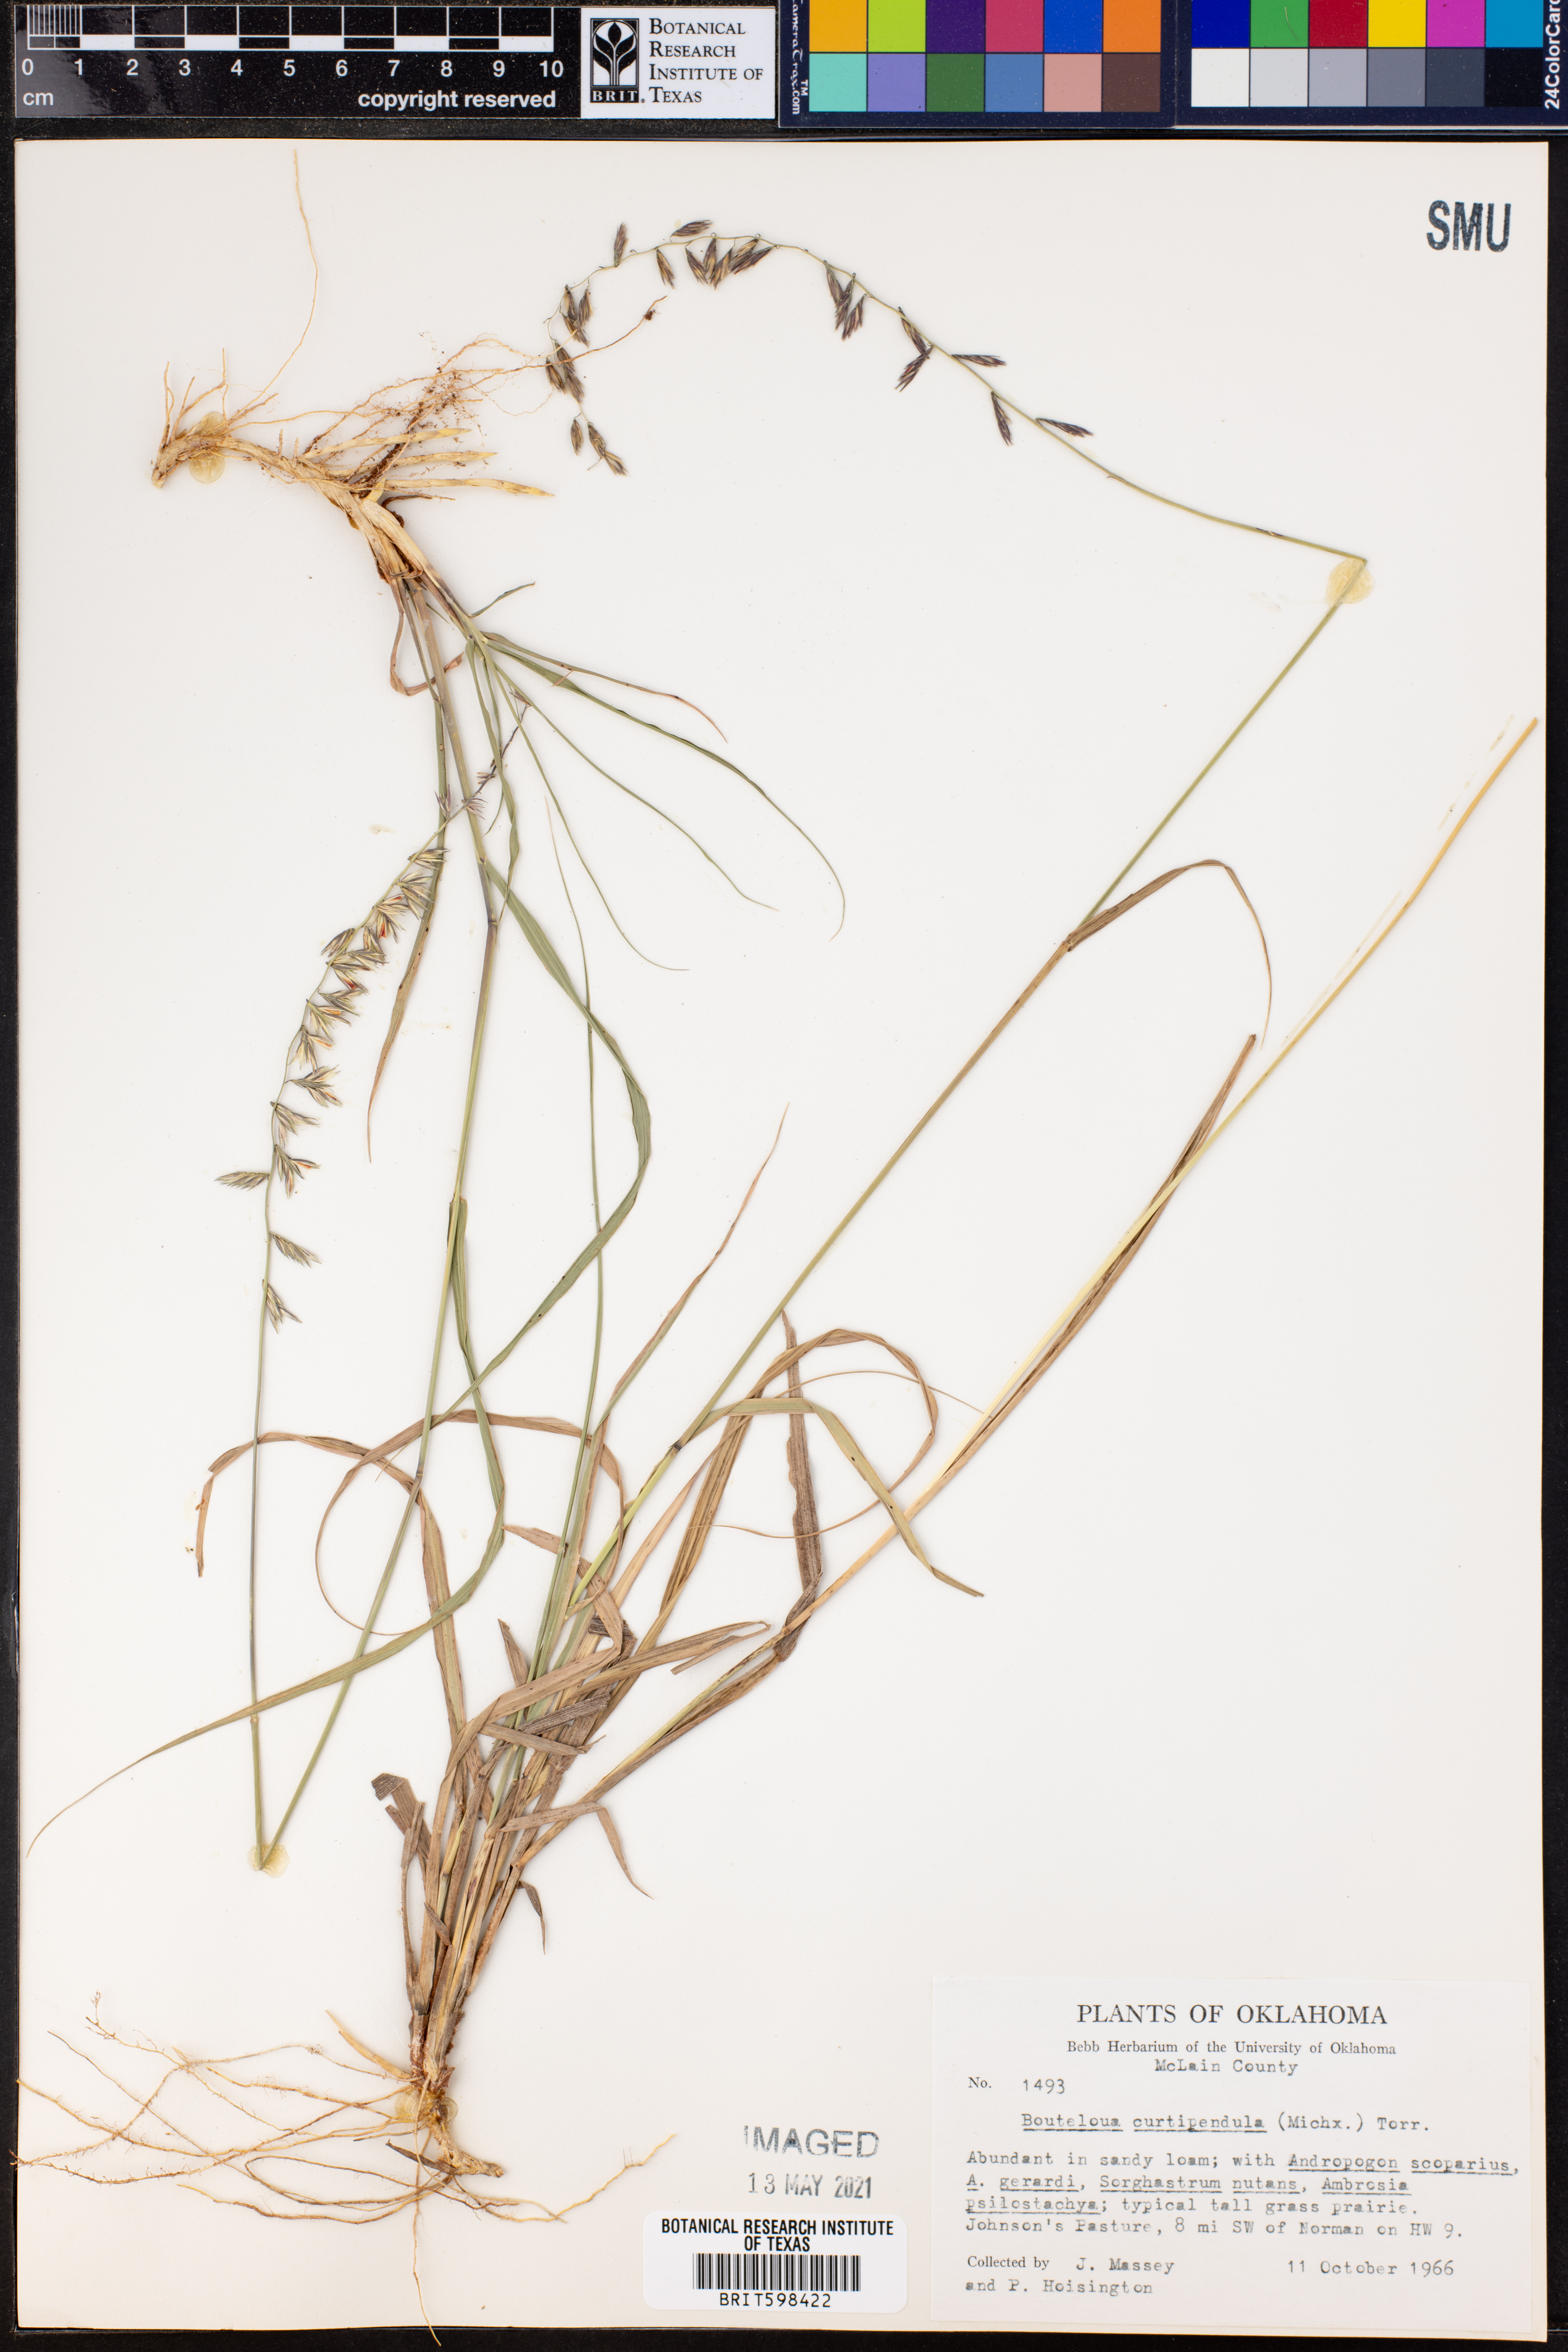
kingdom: Plantae
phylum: Tracheophyta
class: Liliopsida
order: Poales
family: Poaceae
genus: Bouteloua
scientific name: Bouteloua curtipendula
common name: Side-oats grama
